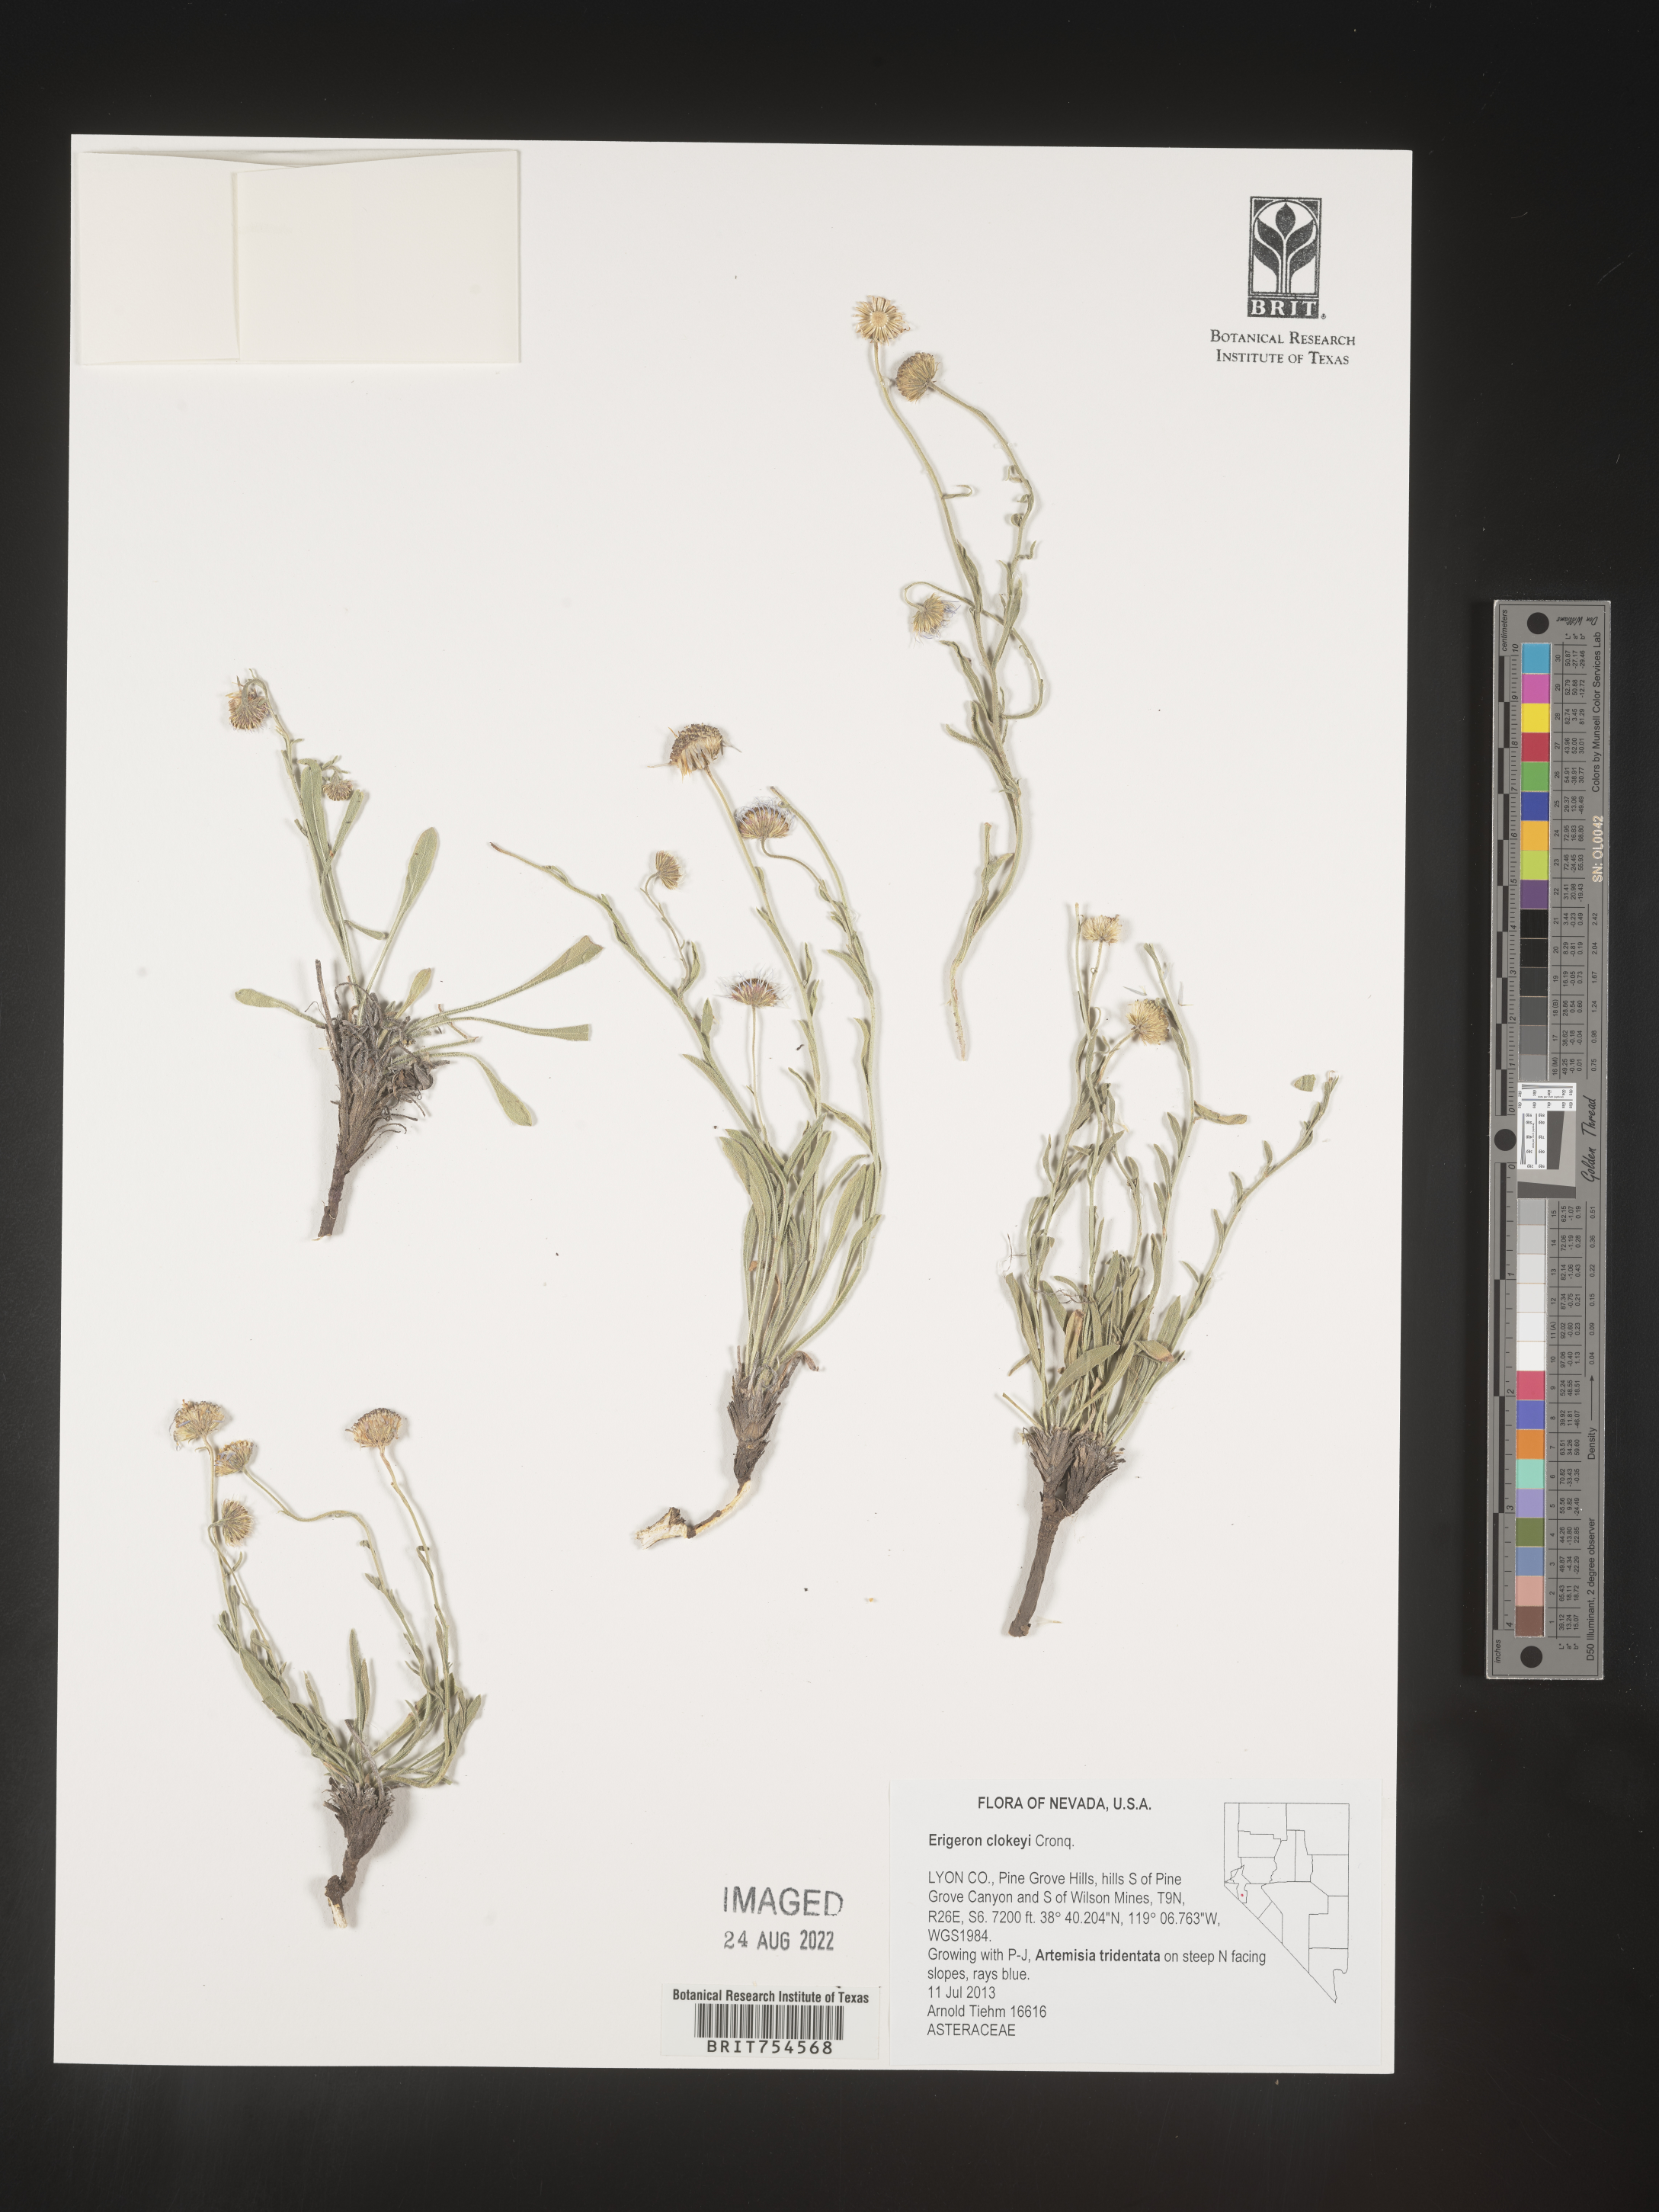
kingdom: Plantae
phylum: Tracheophyta
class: Magnoliopsida
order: Asterales
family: Asteraceae
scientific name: Asteraceae
